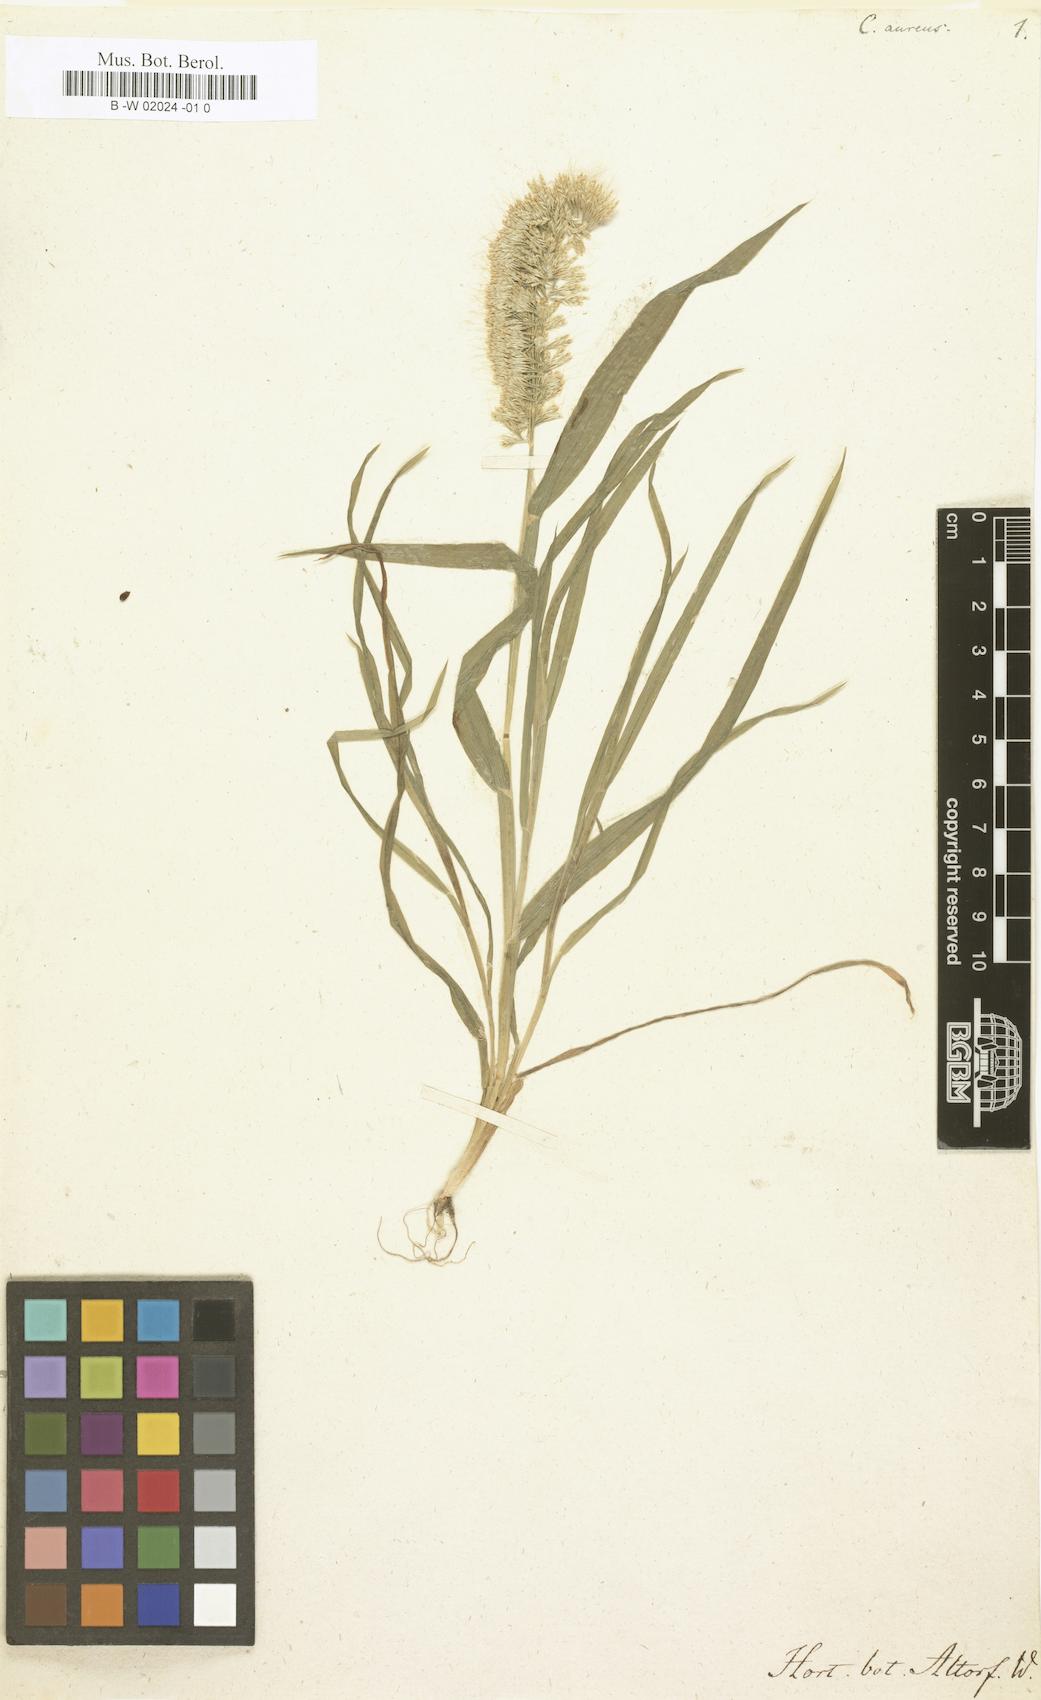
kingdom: Plantae
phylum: Tracheophyta
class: Liliopsida
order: Poales
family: Poaceae
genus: Lamarckia
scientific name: Lamarckia aurea
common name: Golden dog's-tail
